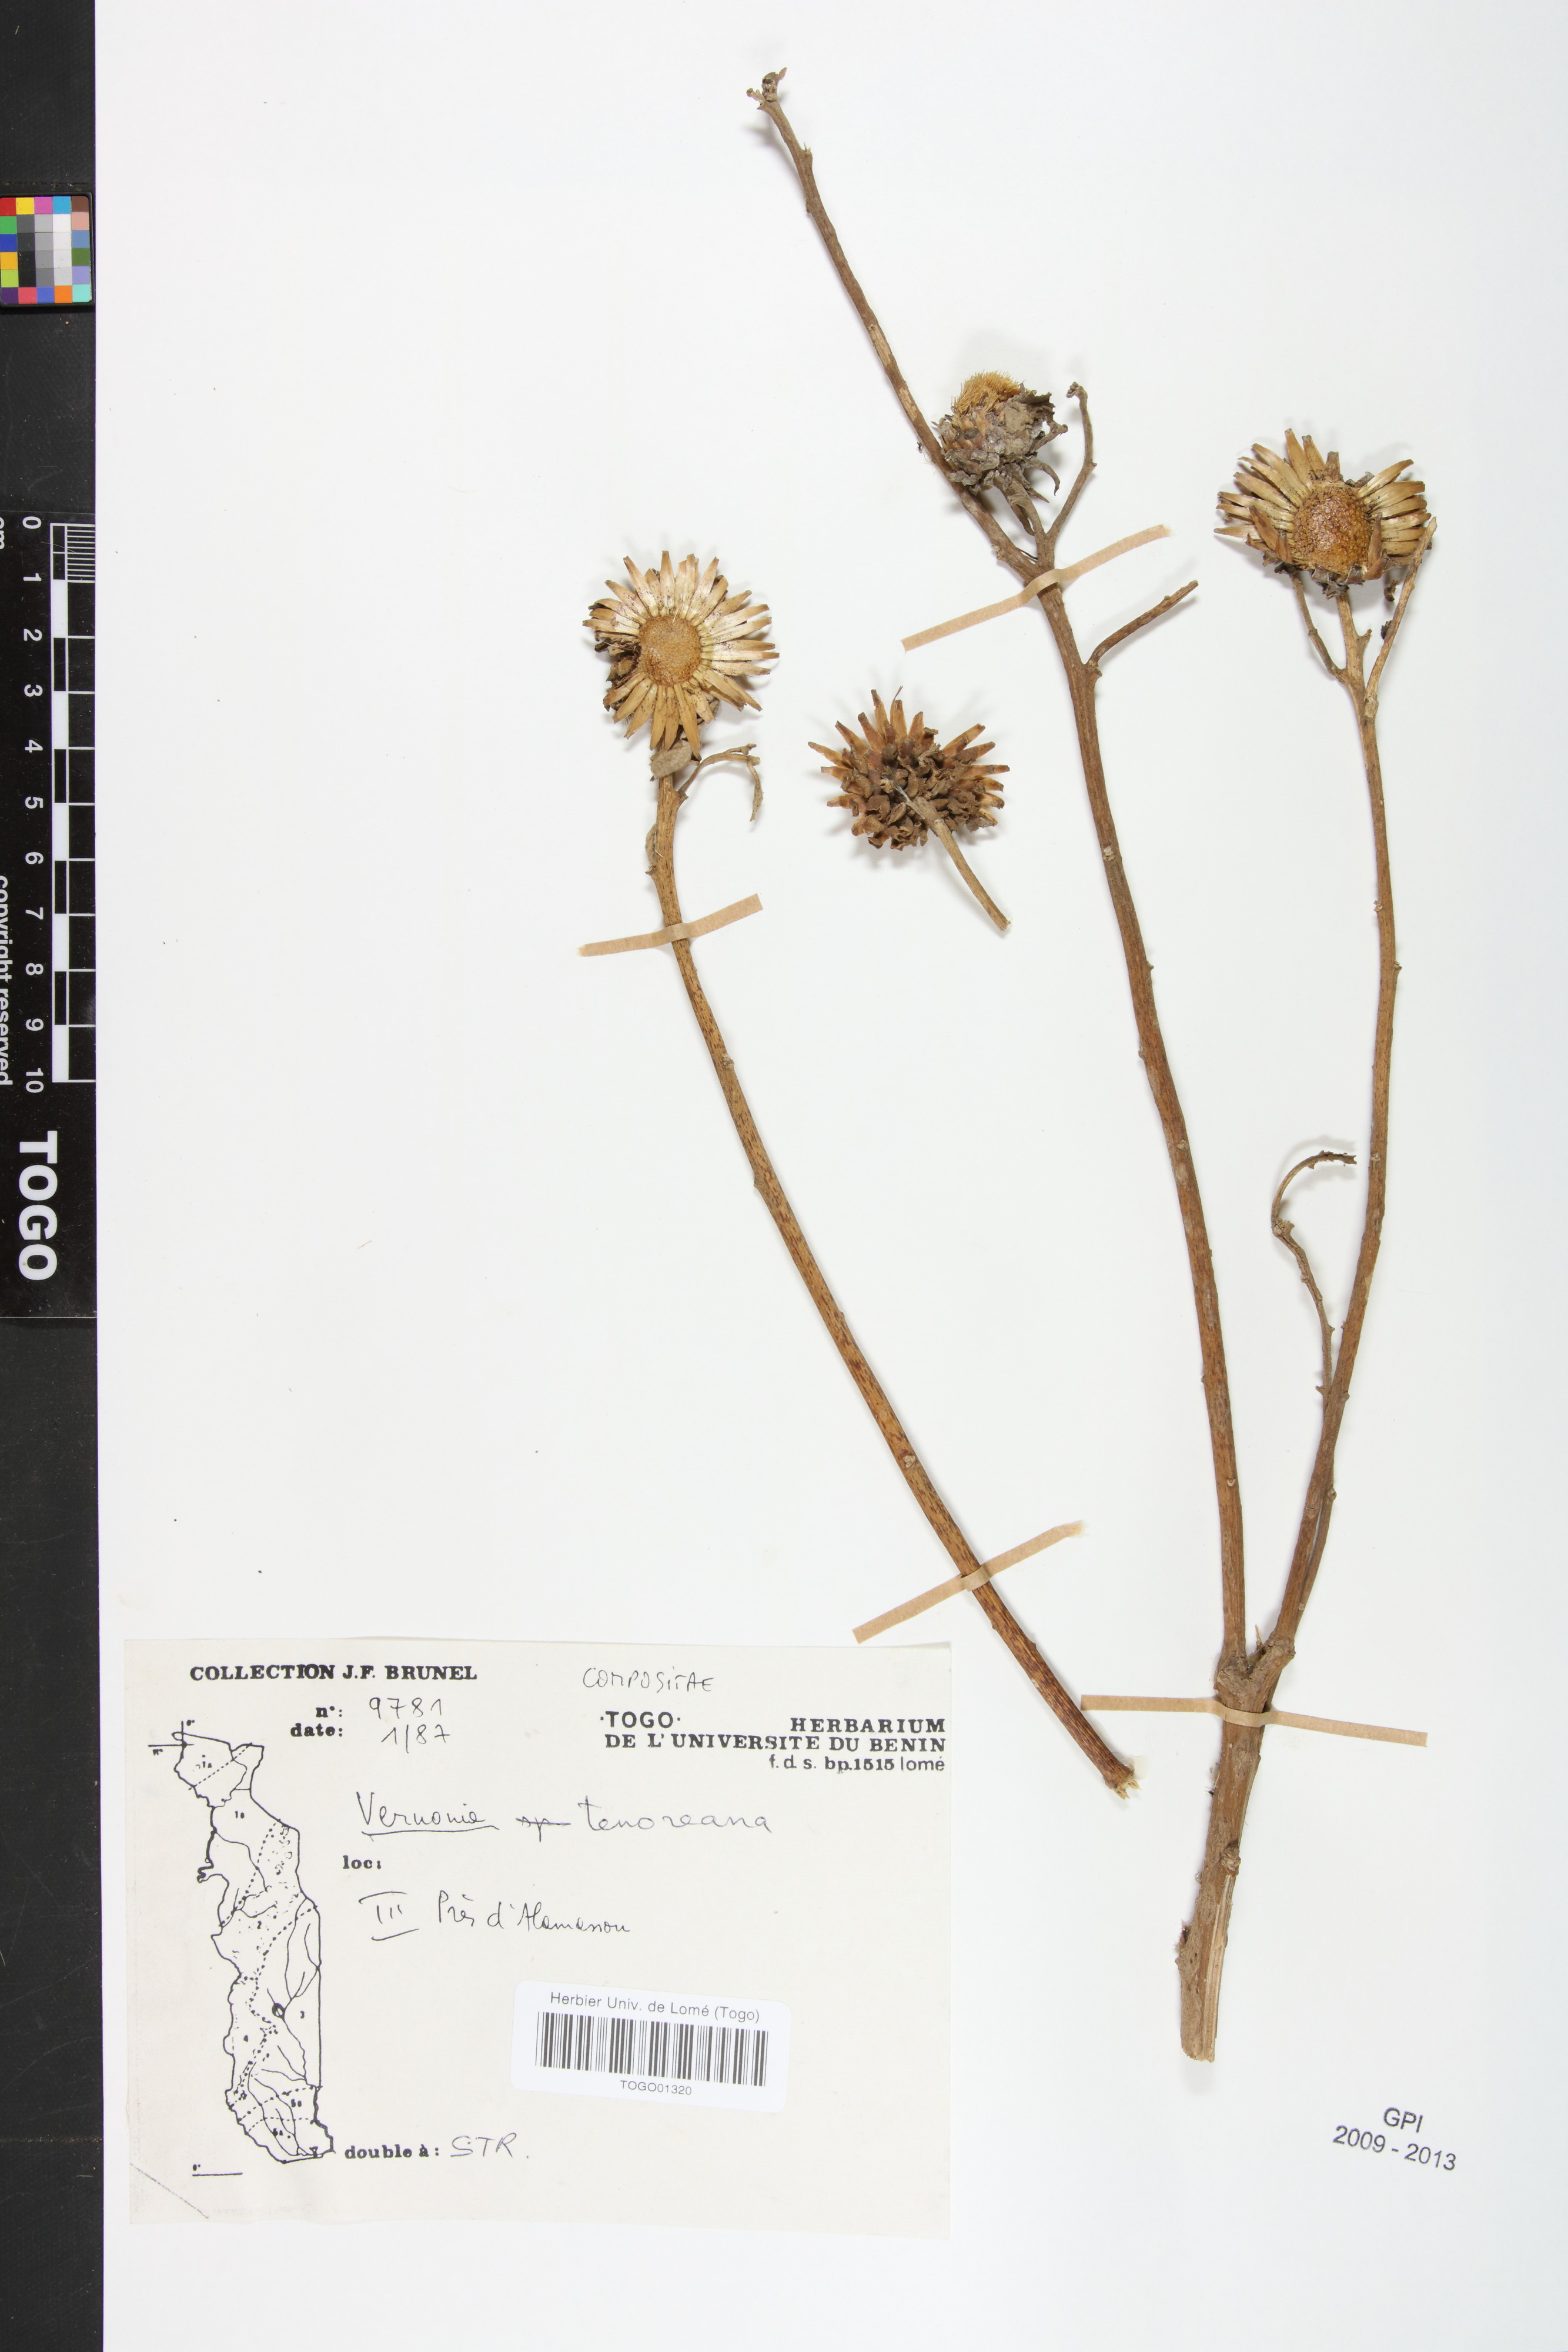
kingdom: Plantae
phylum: Tracheophyta
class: Magnoliopsida
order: Asterales
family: Asteraceae
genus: Baccharoides
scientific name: Baccharoides tenoreana
